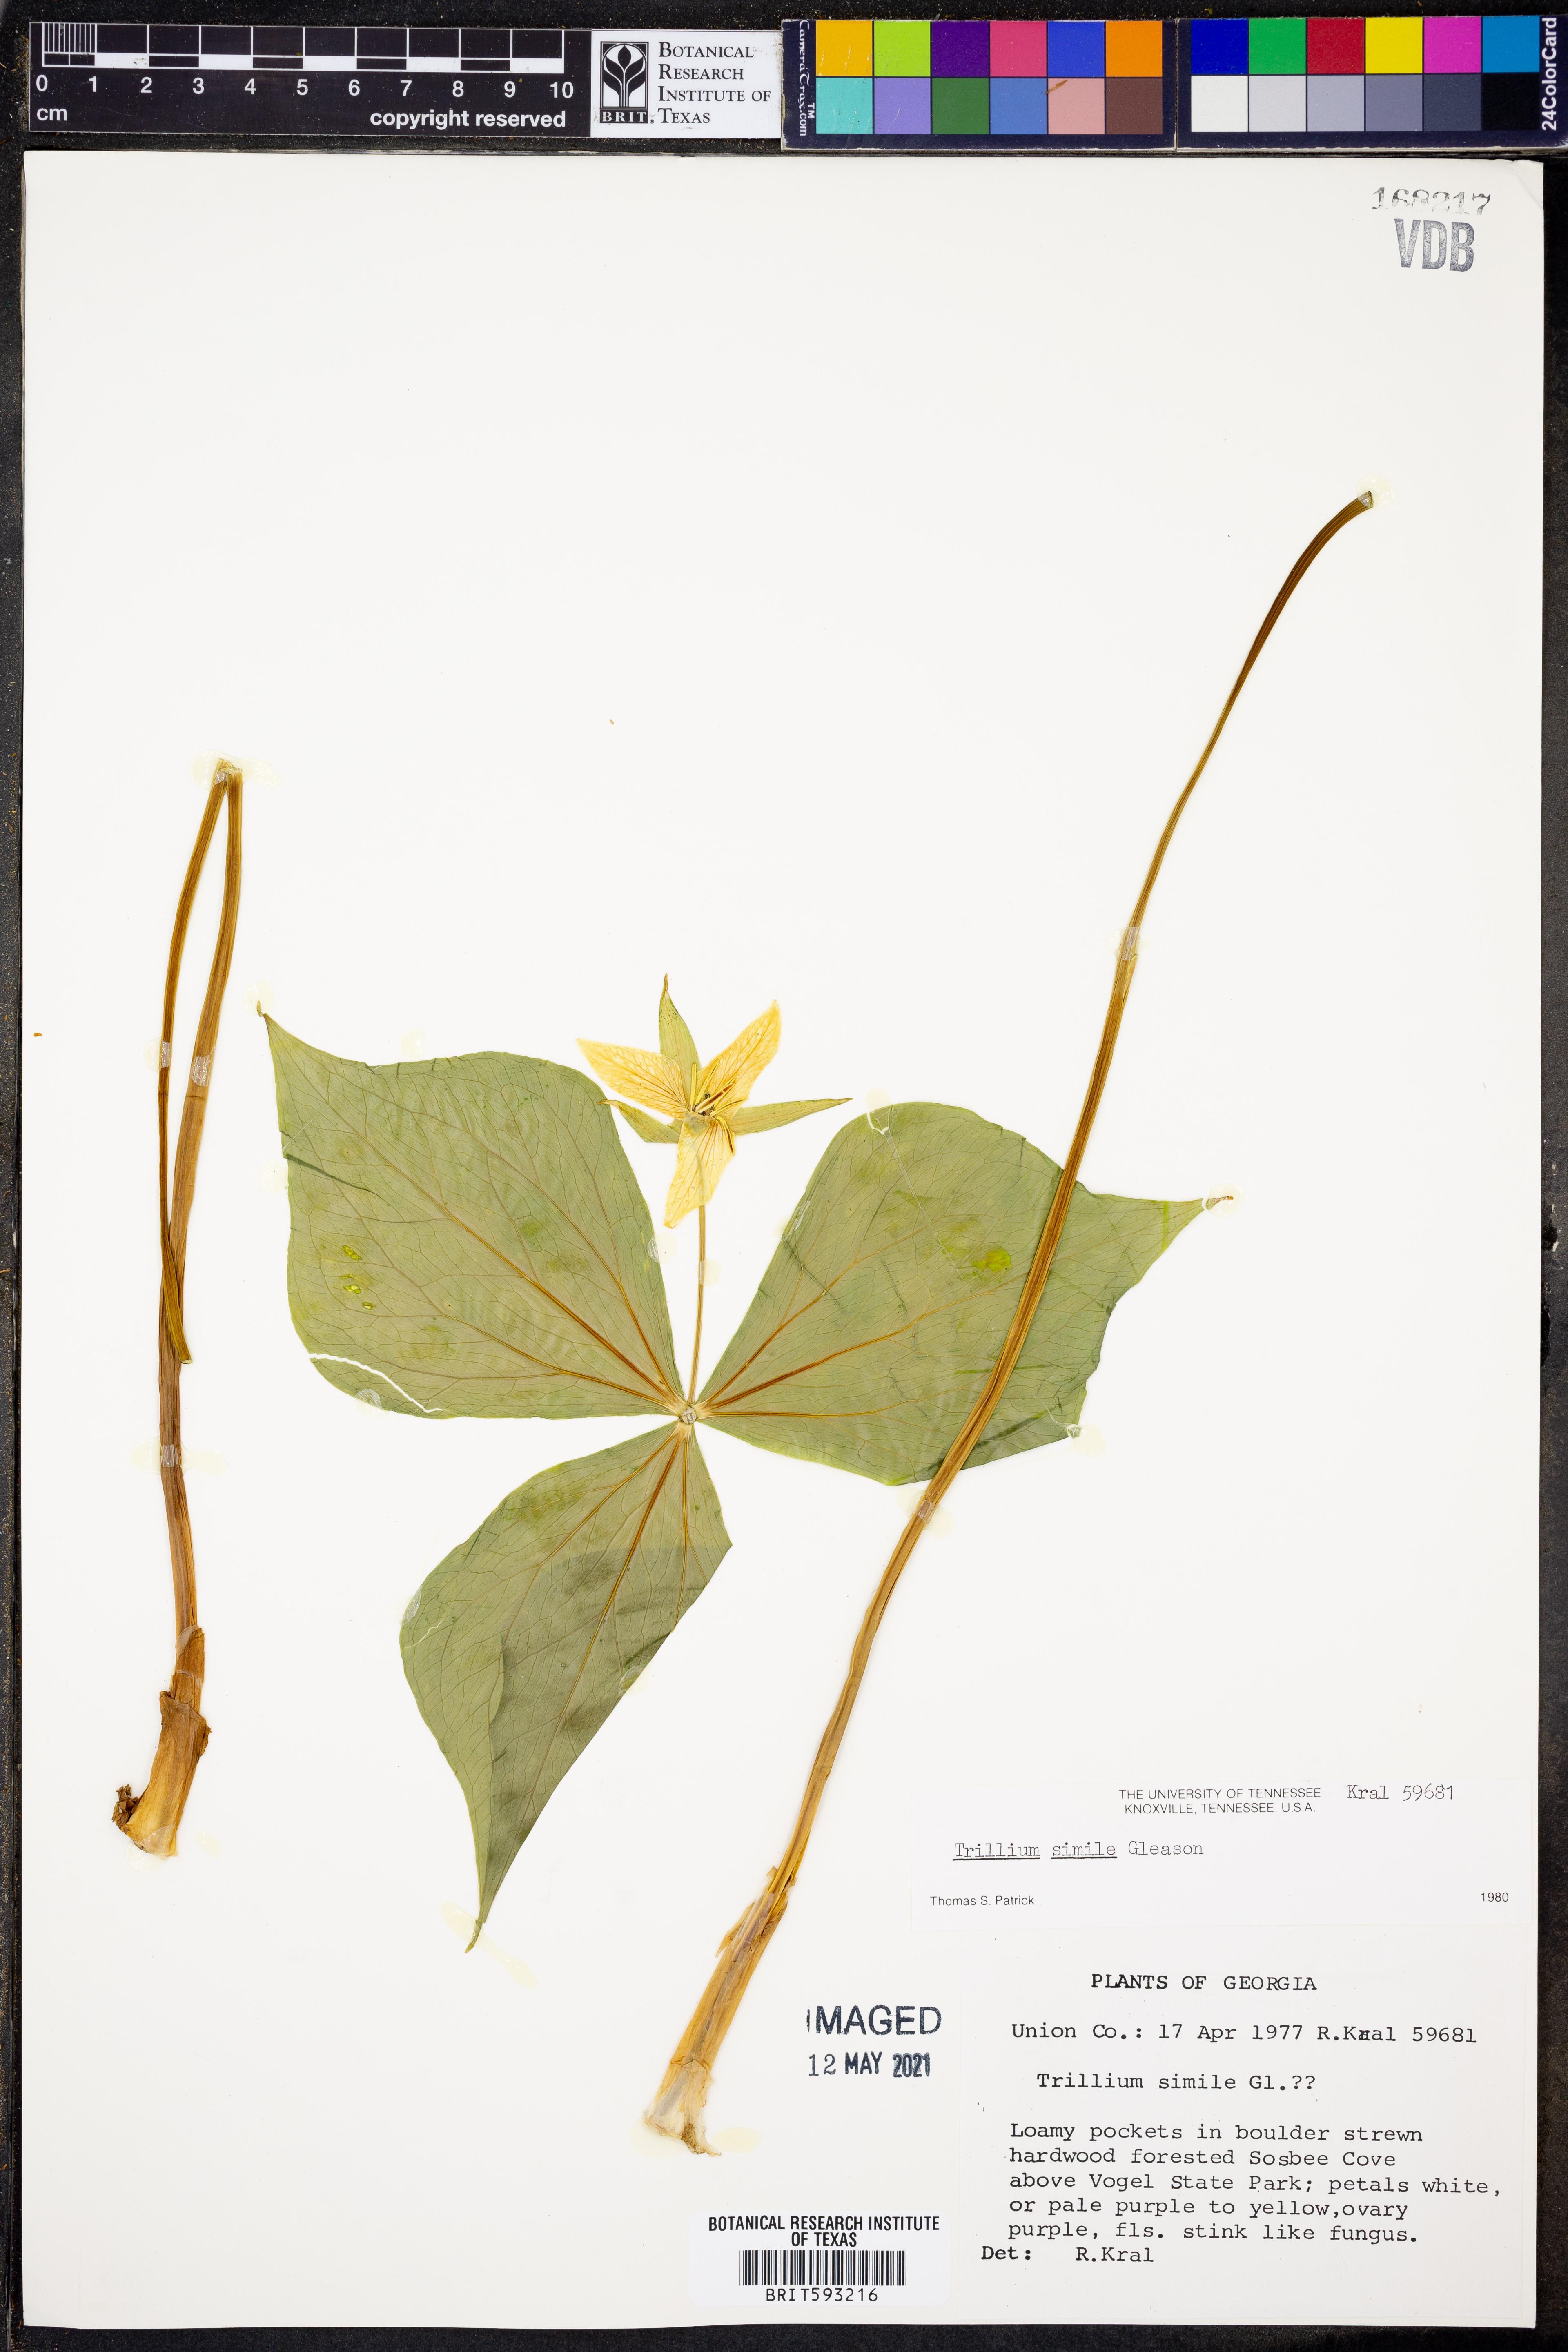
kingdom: Plantae
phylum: Tracheophyta
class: Liliopsida
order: Liliales
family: Melanthiaceae
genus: Trillium
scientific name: Trillium simile
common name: Confusing trillium
